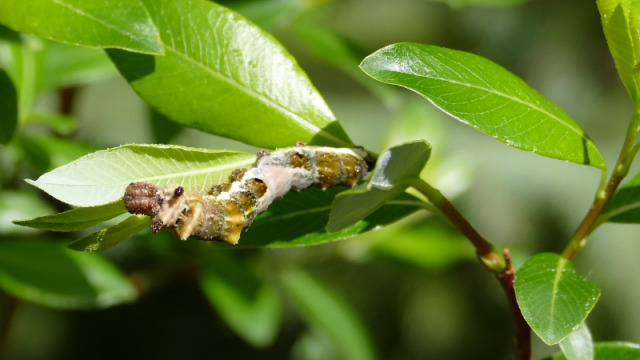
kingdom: Animalia
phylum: Arthropoda
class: Insecta
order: Lepidoptera
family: Nymphalidae
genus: Limenitis
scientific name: Limenitis arthemis
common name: Red-spotted Admiral
